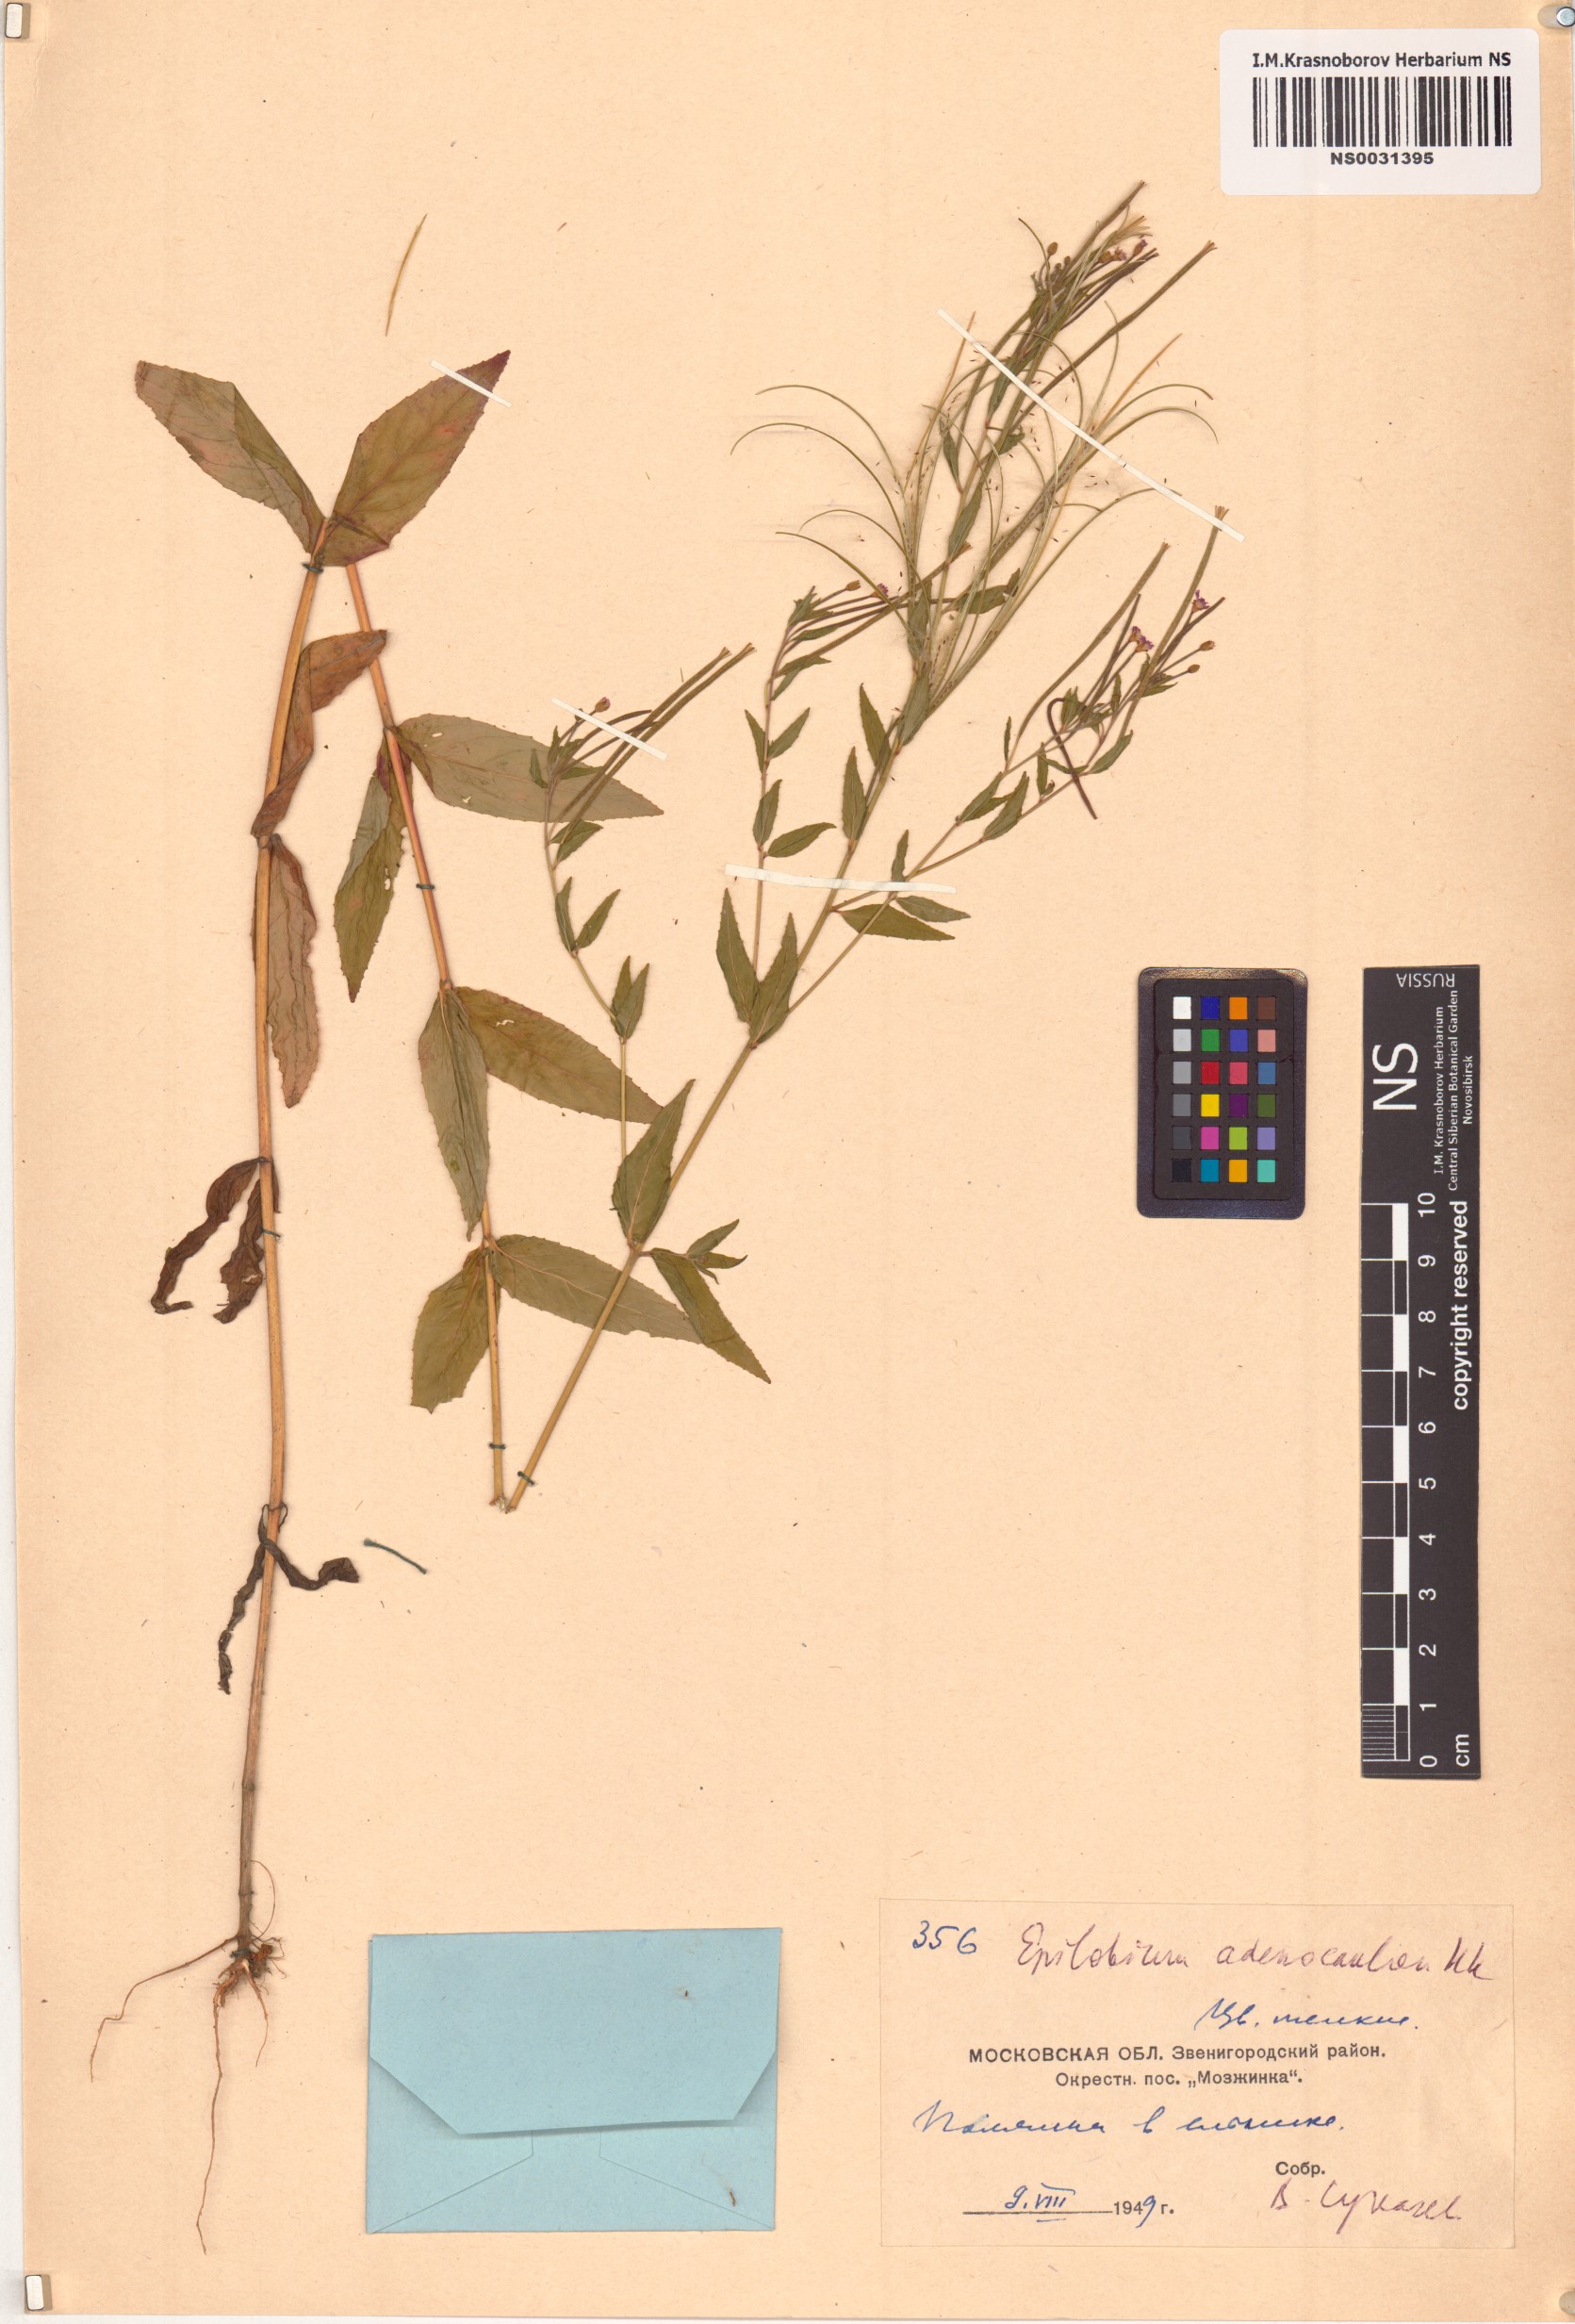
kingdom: Plantae
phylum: Tracheophyta
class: Magnoliopsida
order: Myrtales
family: Onagraceae
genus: Epilobium
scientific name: Epilobium ciliatum
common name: American willowherb
